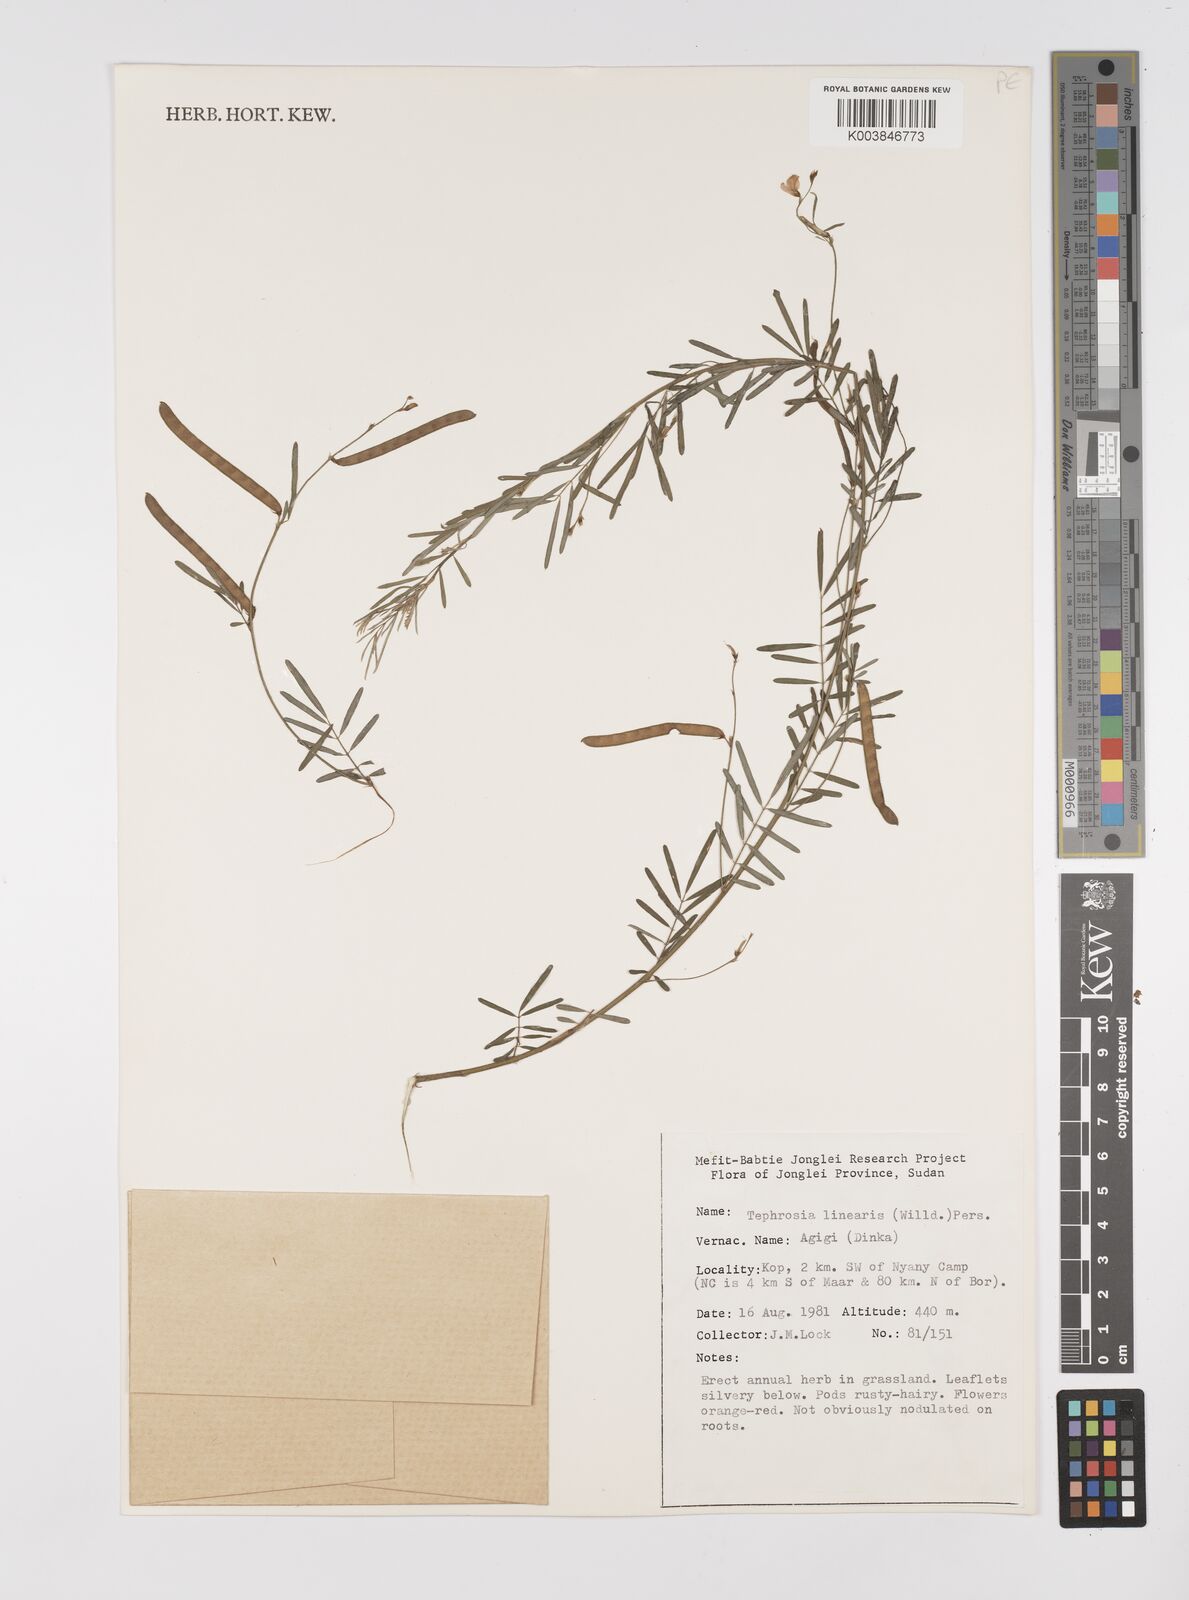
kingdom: Plantae
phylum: Tracheophyta
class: Magnoliopsida
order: Fabales
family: Fabaceae
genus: Tephrosia
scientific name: Tephrosia linearis
